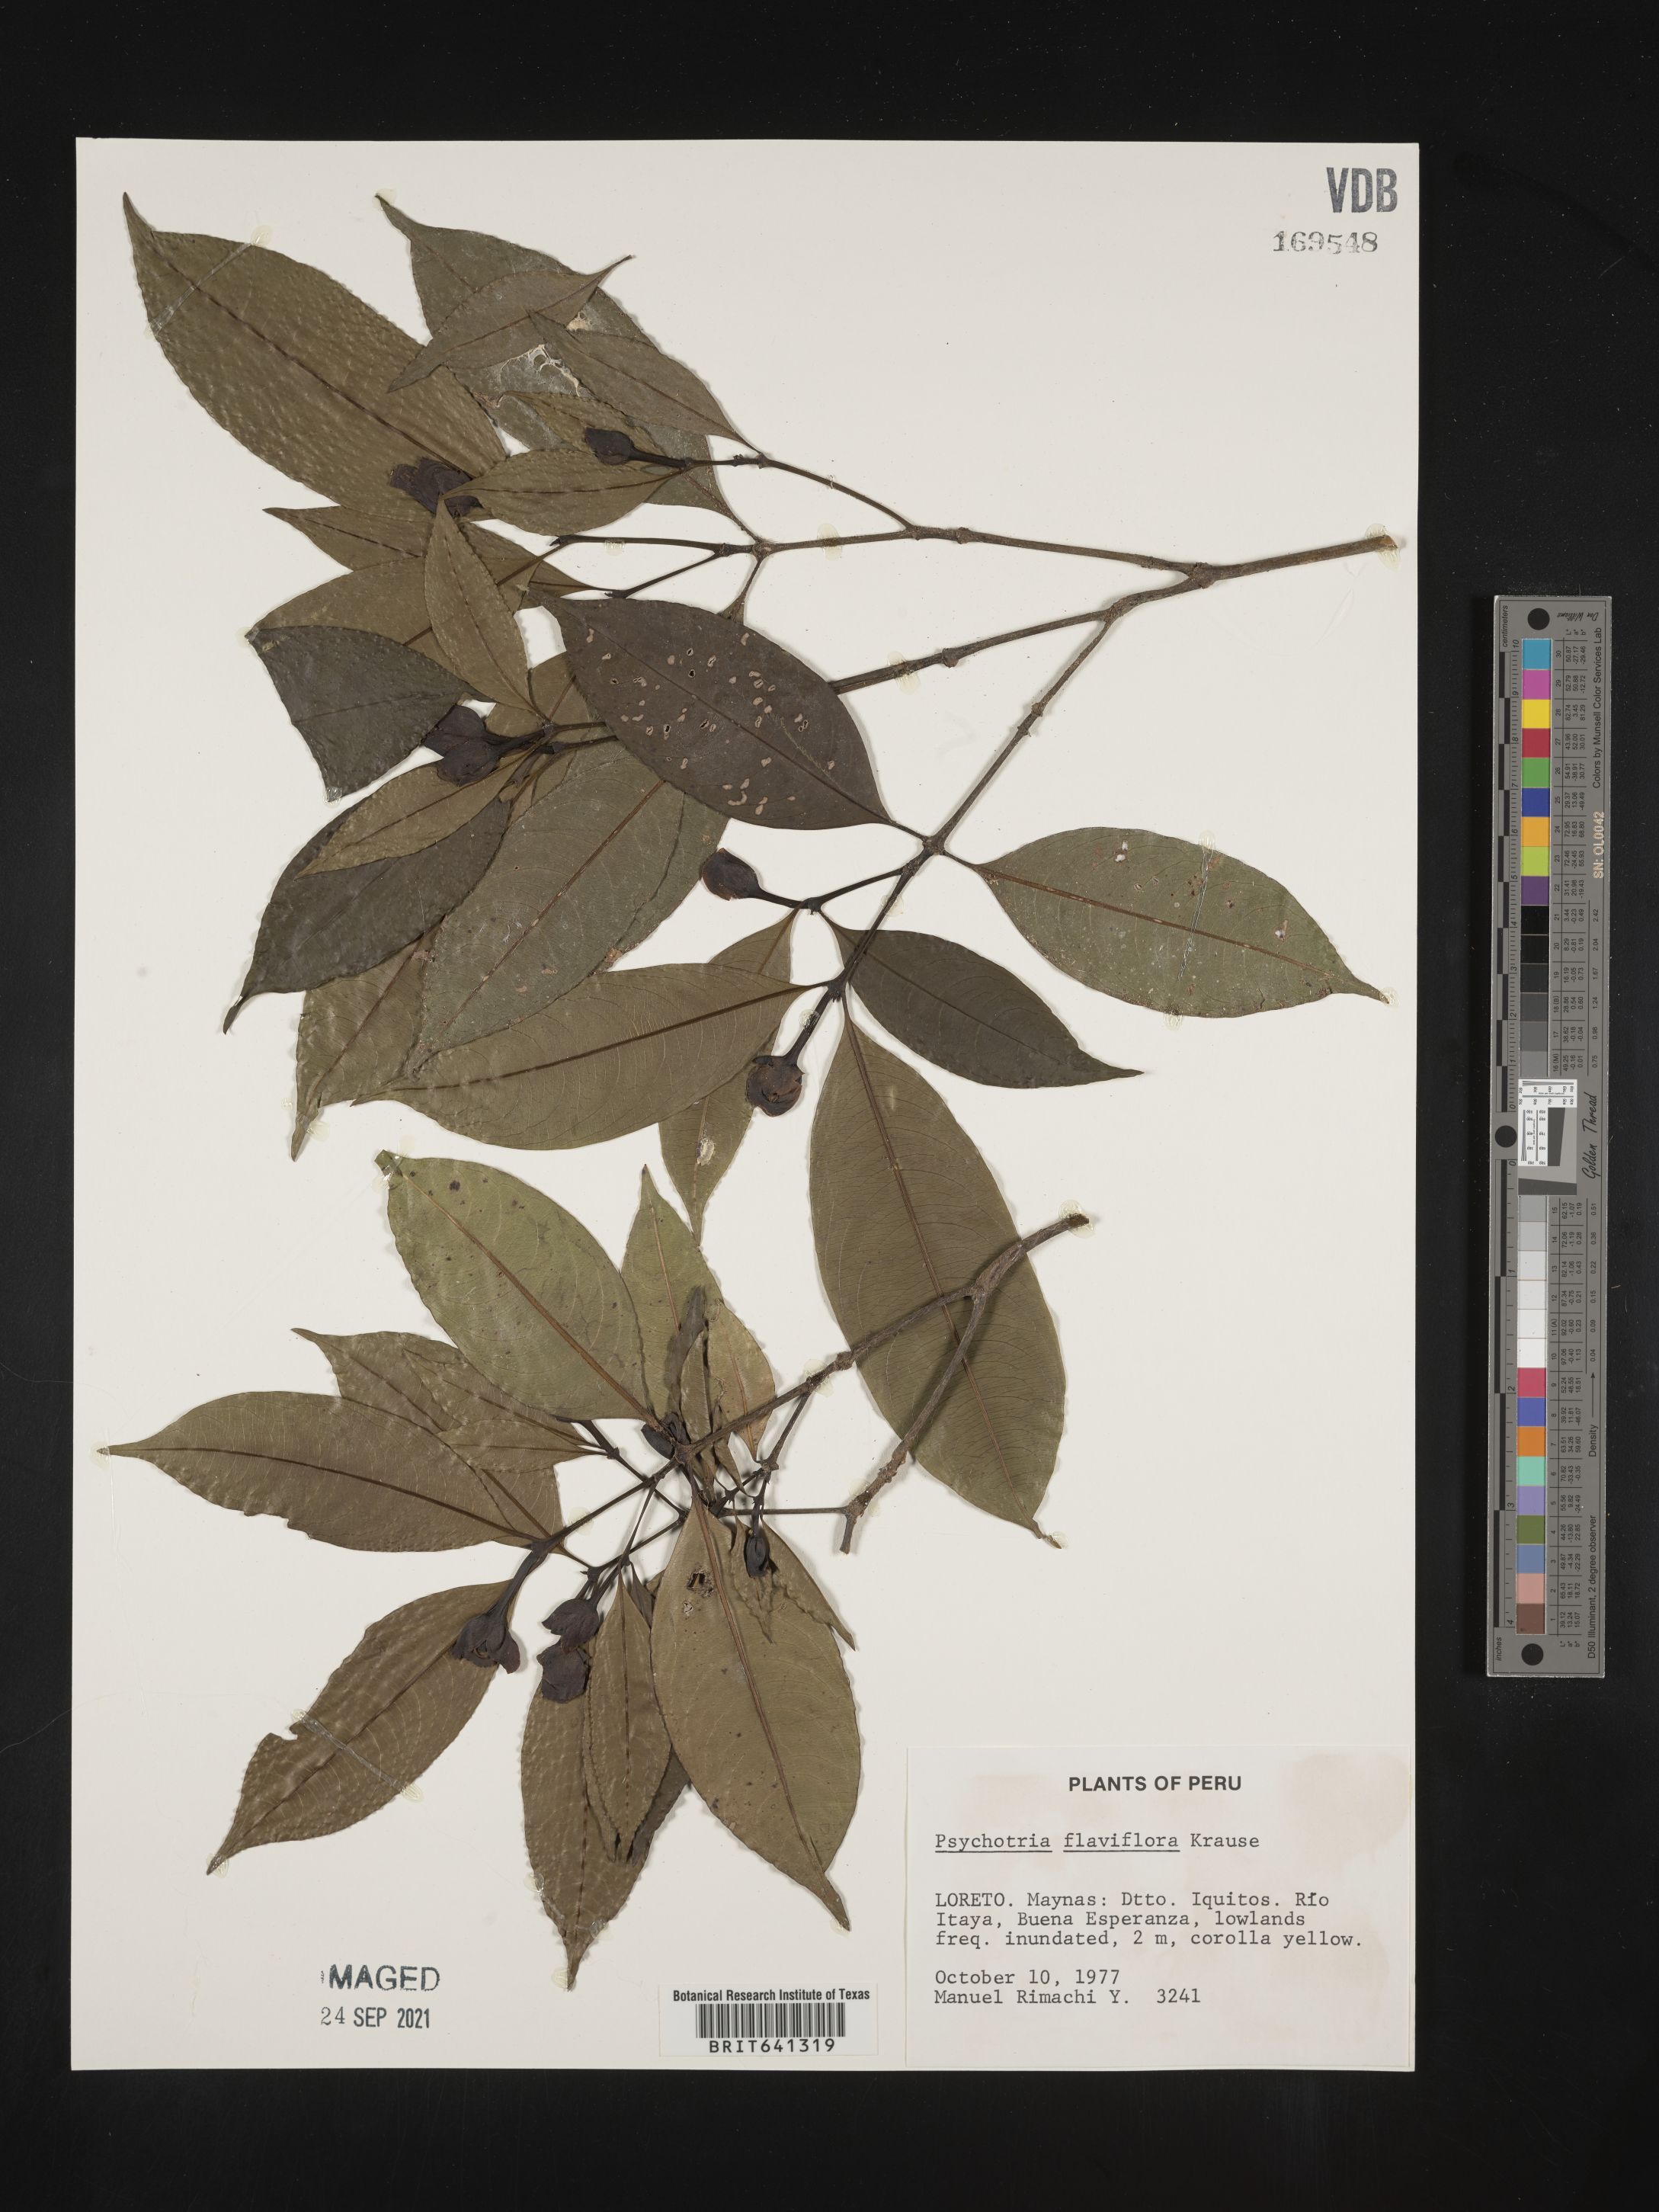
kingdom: Plantae
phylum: Tracheophyta
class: Magnoliopsida
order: Gentianales
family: Rubiaceae
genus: Psychotria
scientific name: Psychotria
